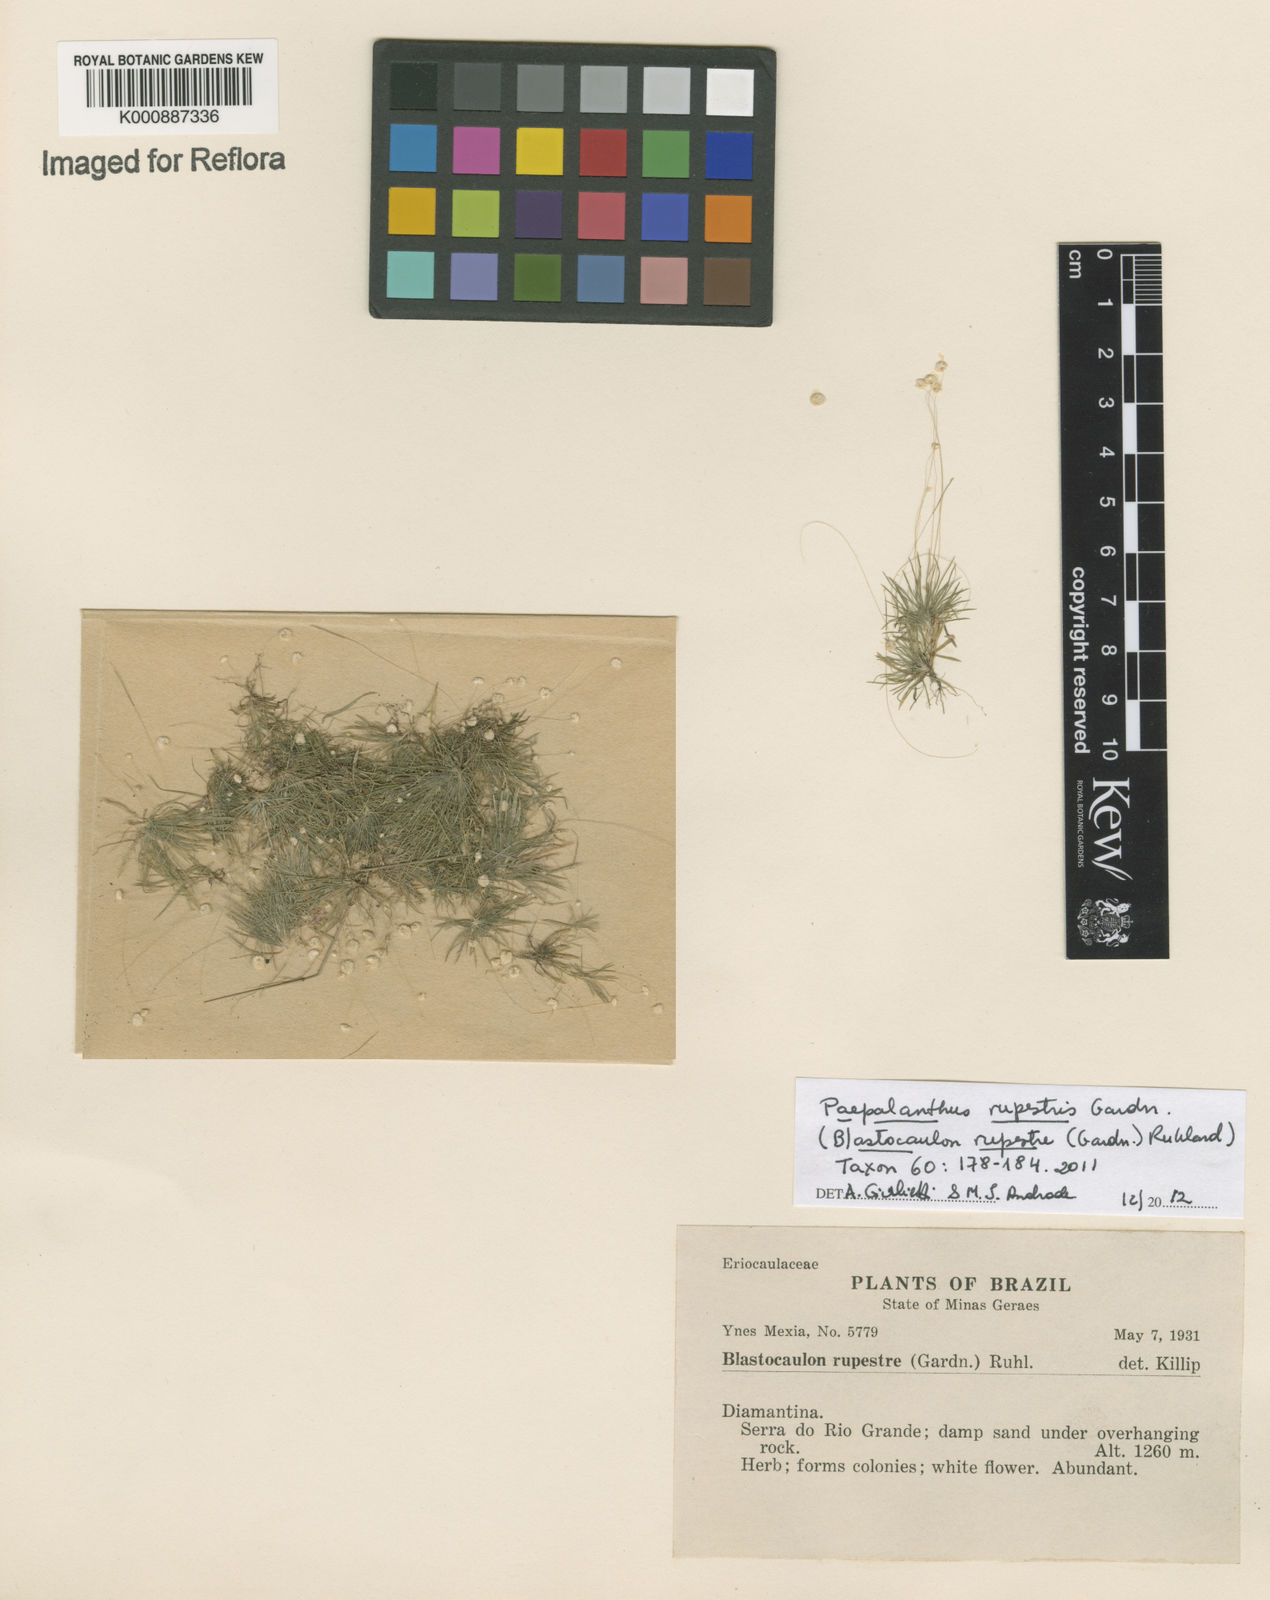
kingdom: Plantae
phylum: Tracheophyta
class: Liliopsida
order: Poales
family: Eriocaulaceae
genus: Paepalanthus
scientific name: Paepalanthus rupestris
